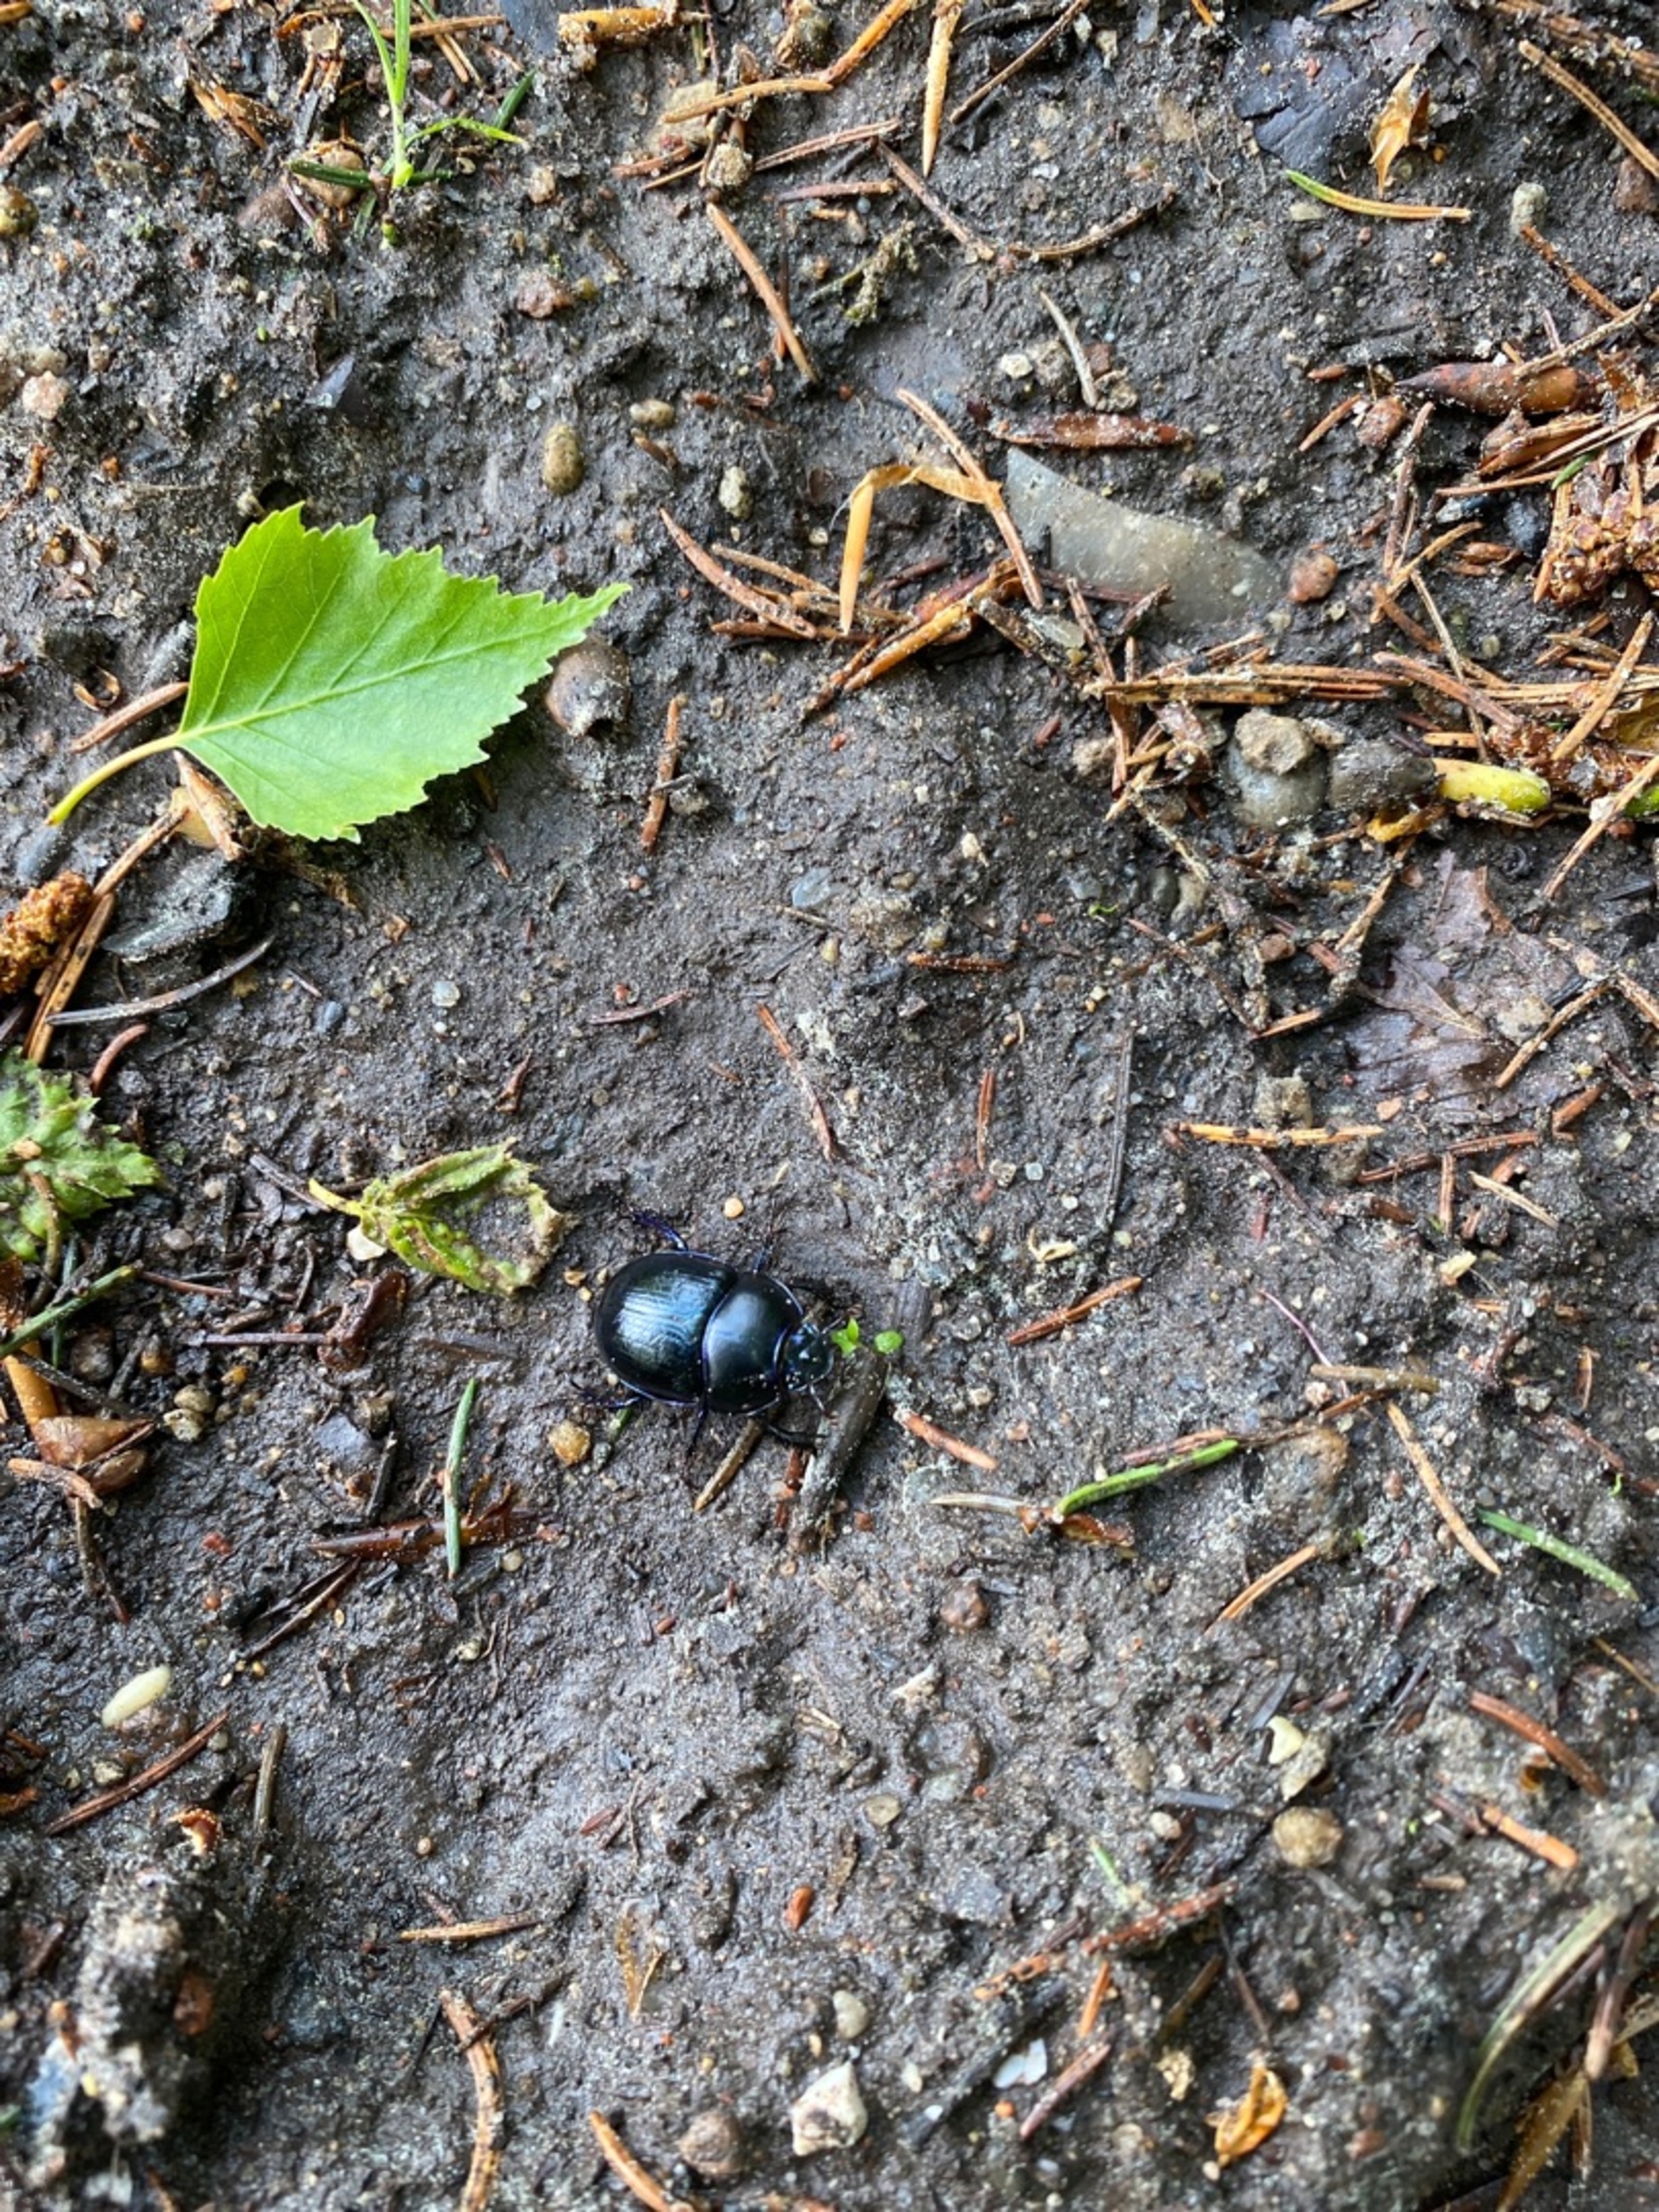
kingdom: Animalia
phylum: Arthropoda
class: Insecta
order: Coleoptera
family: Geotrupidae
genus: Anoplotrupes
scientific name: Anoplotrupes stercorosus
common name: Skovskarnbasse
